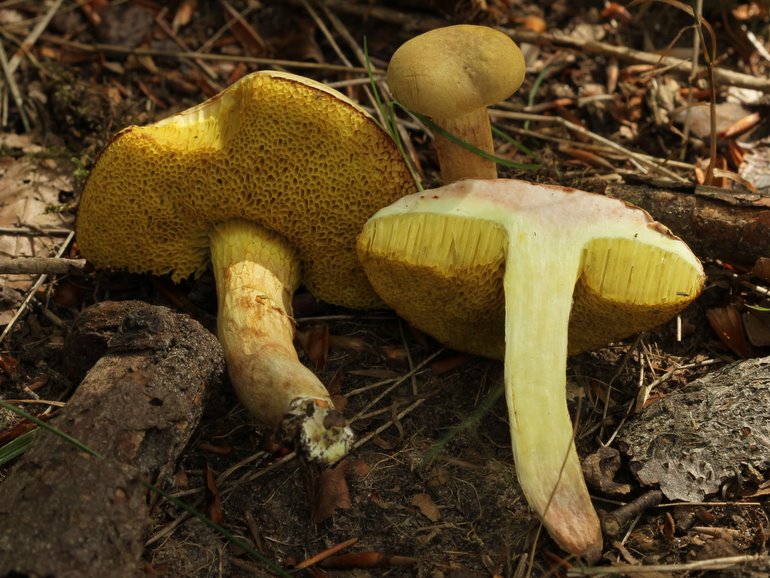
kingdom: Fungi
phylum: Basidiomycota
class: Agaricomycetes
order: Boletales
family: Boletaceae
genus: Butyriboletus
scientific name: Butyriboletus appendiculatus
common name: tenstokket rørhat
